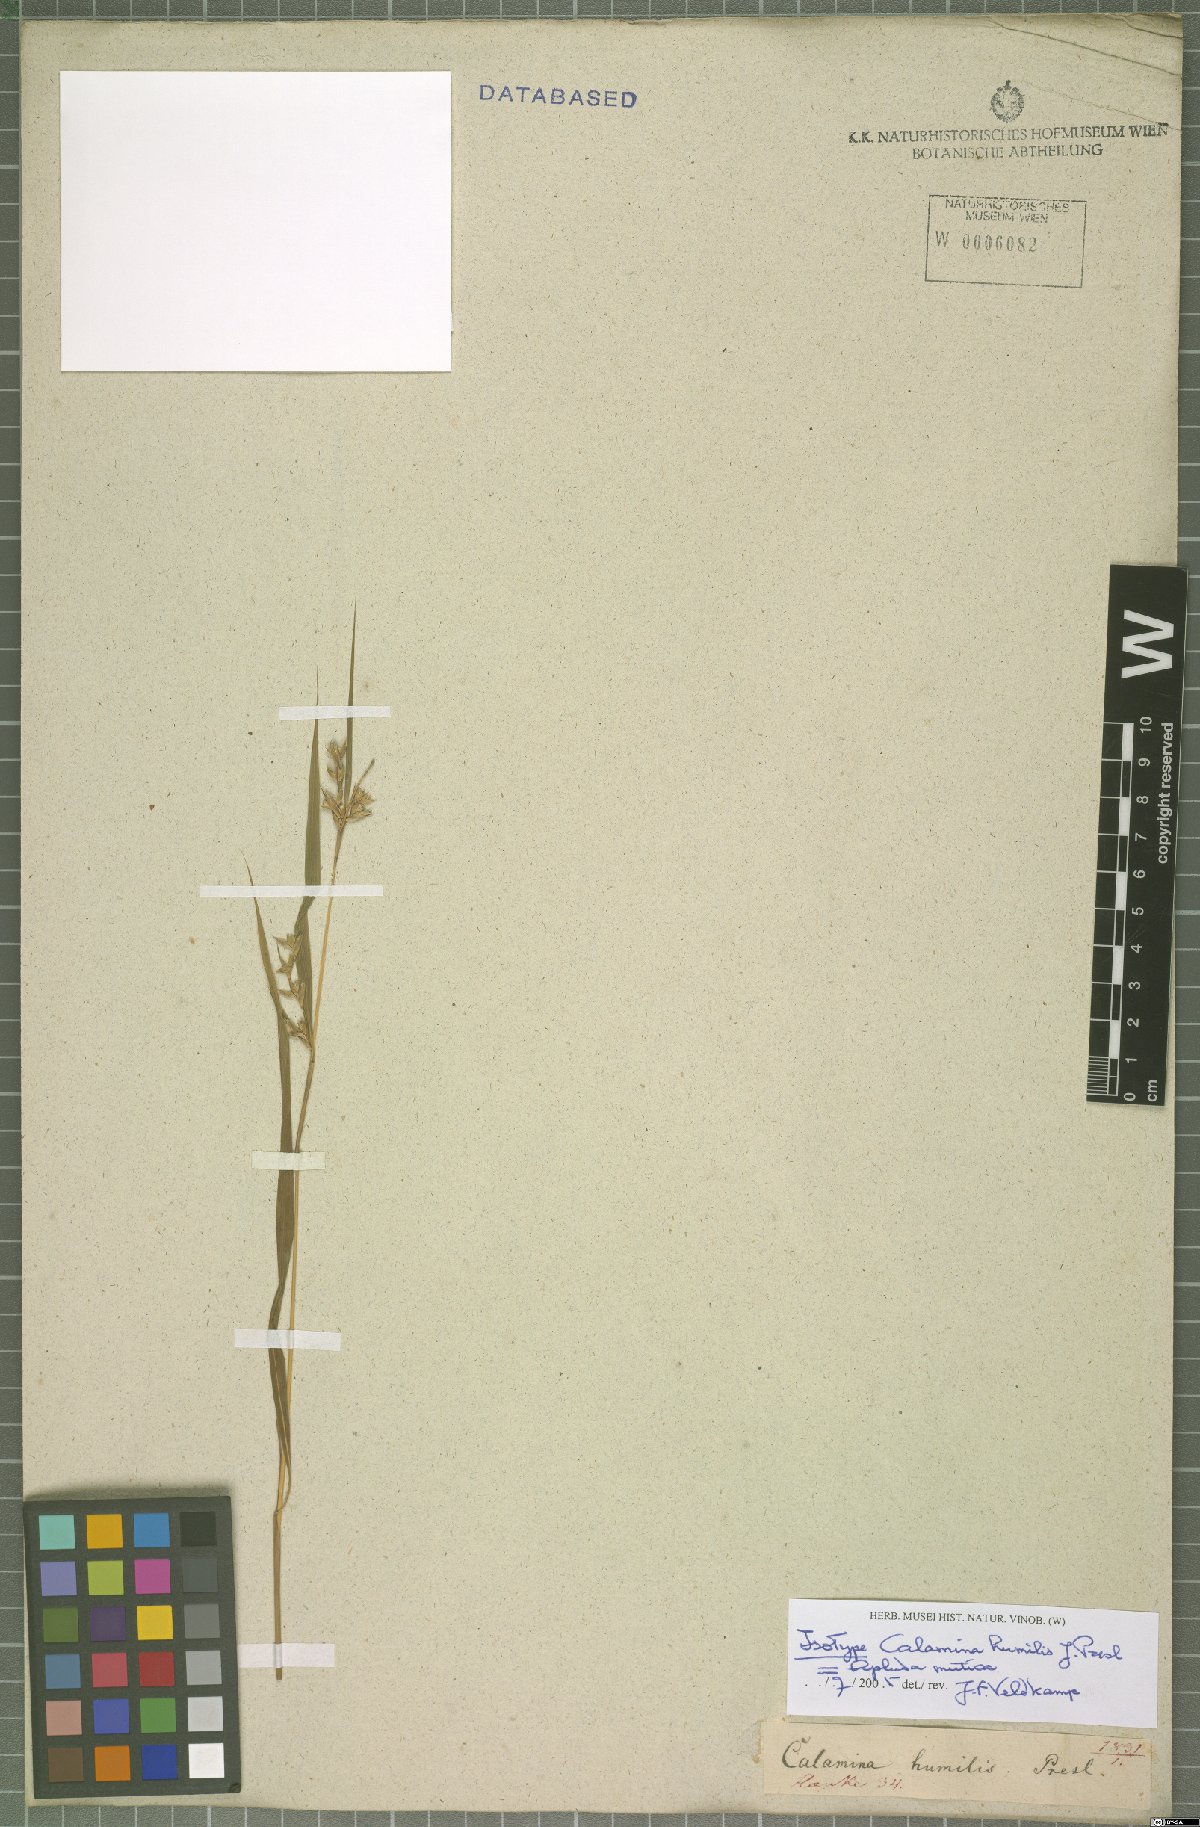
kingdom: Plantae
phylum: Tracheophyta
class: Liliopsida
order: Poales
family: Poaceae
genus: Apluda
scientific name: Apluda mutica
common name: Mauritian grass
